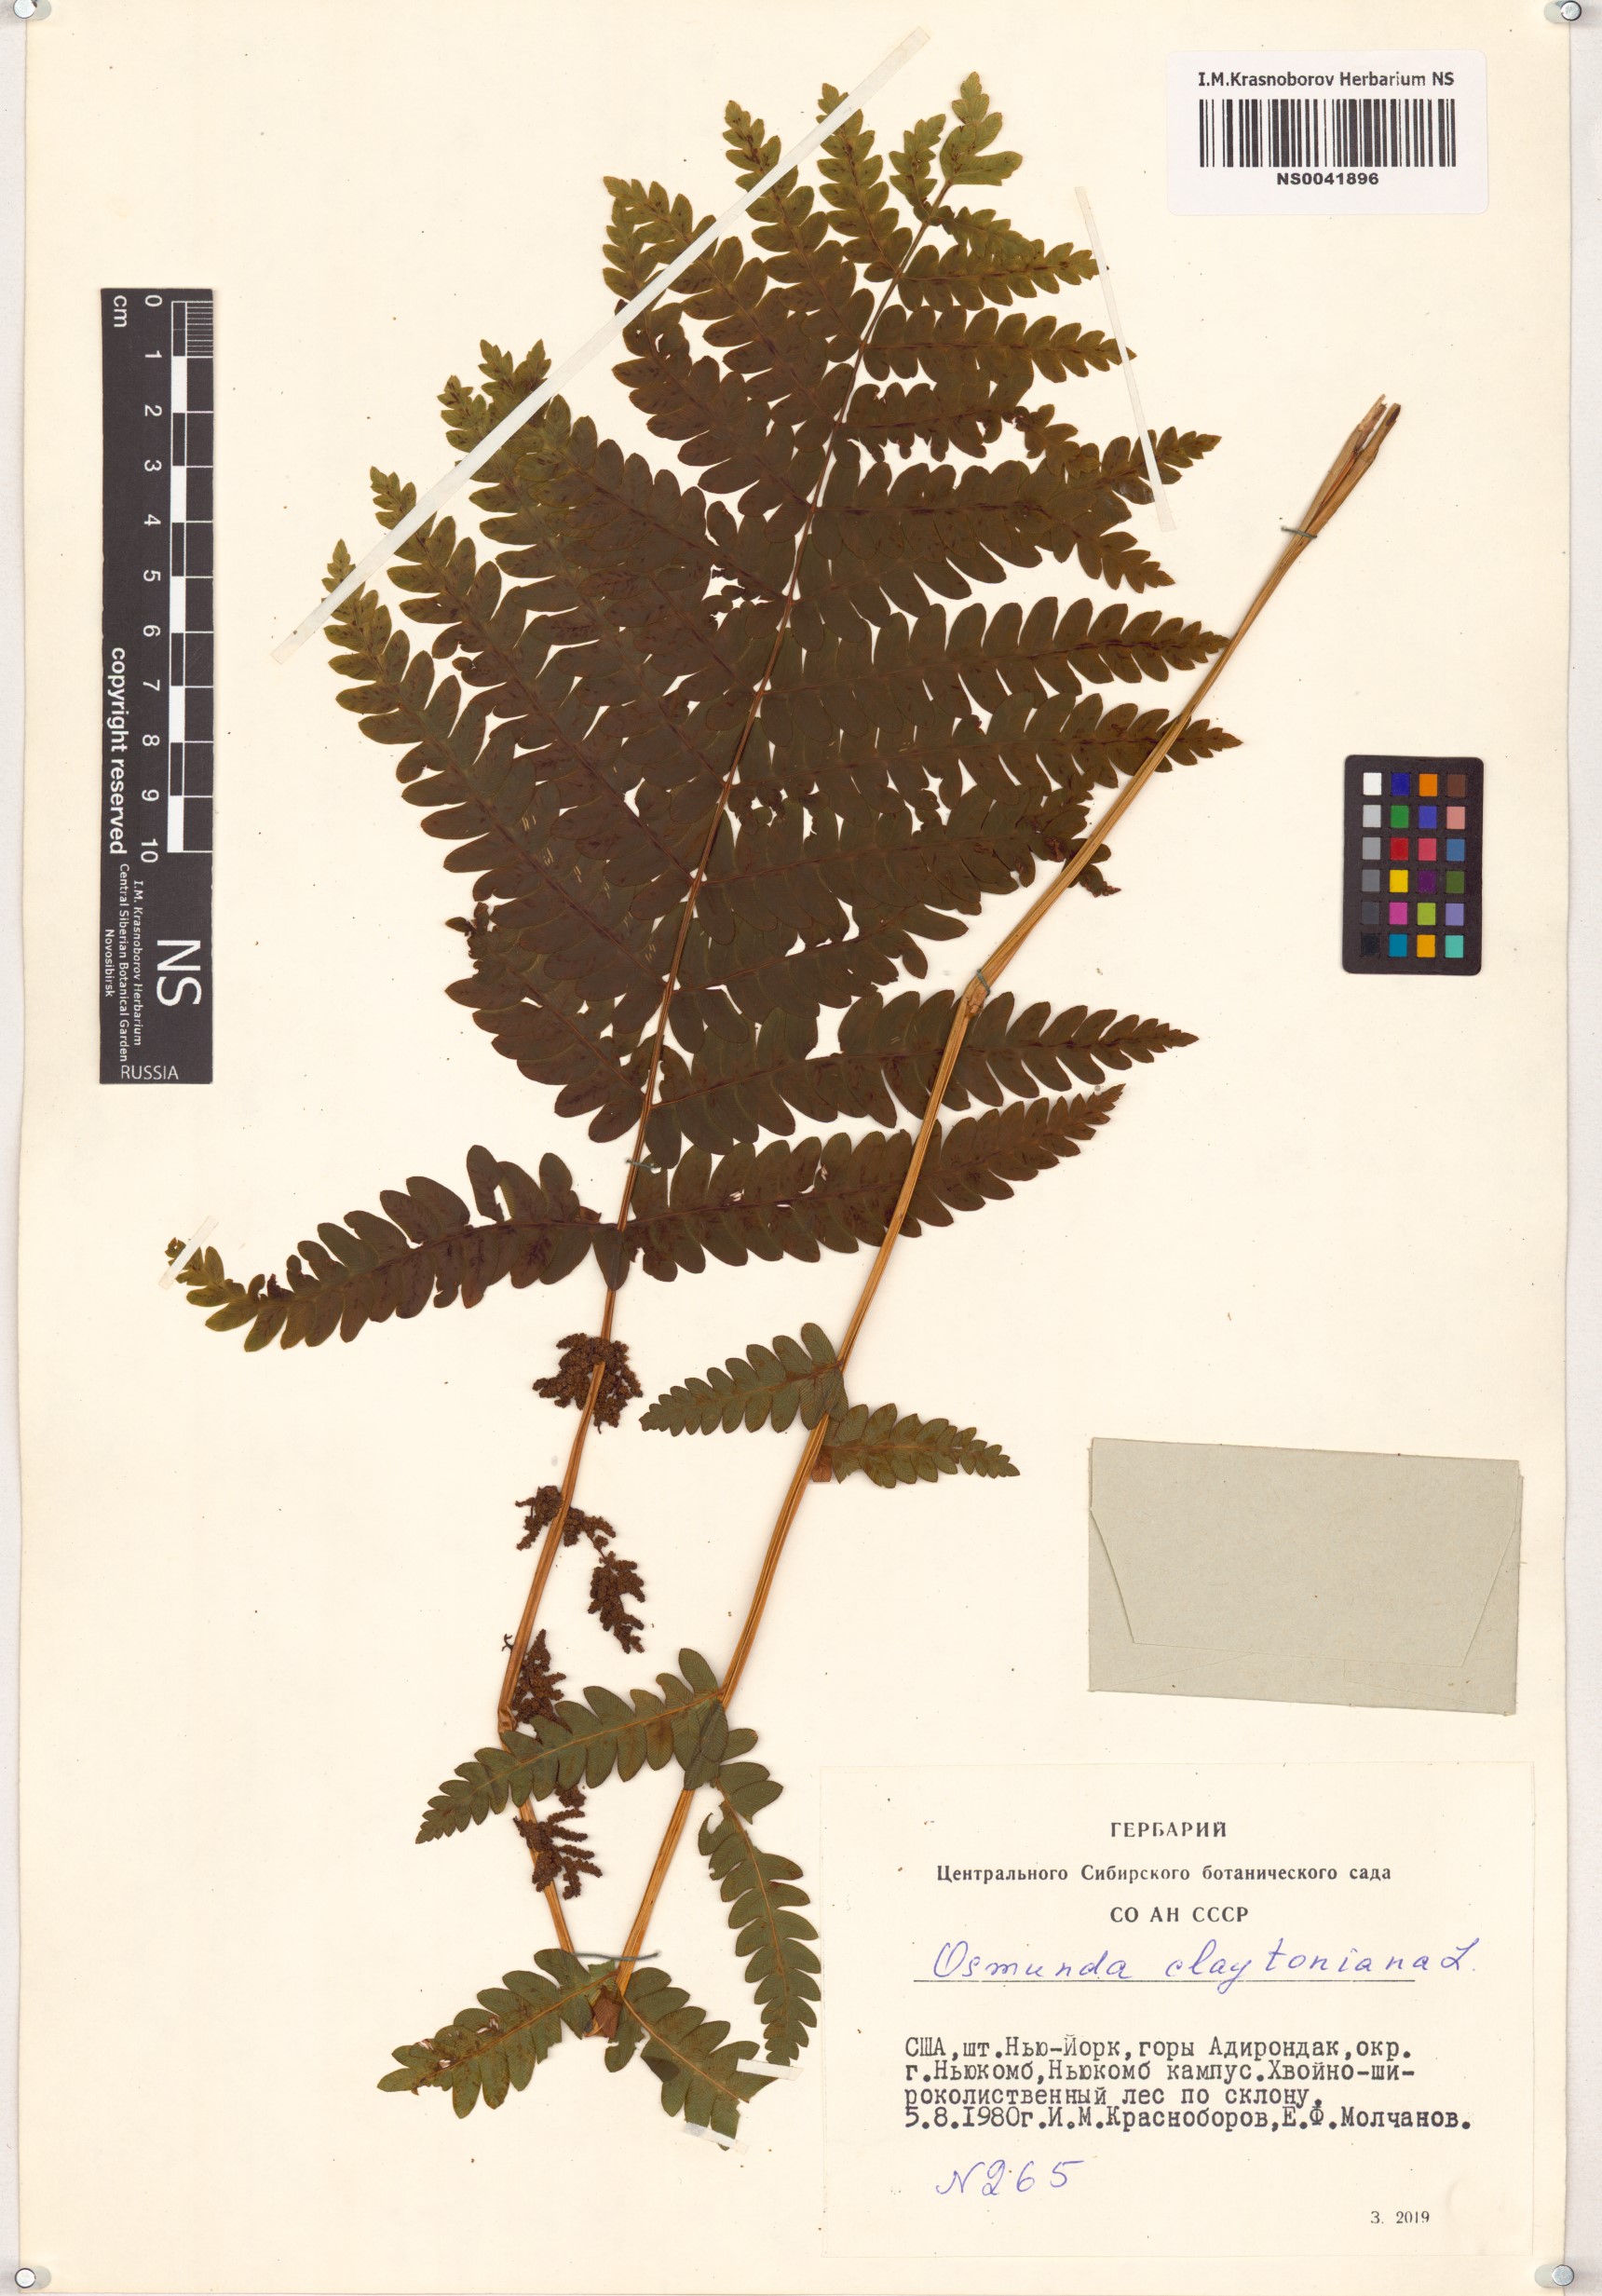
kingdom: Plantae
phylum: Tracheophyta
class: Polypodiopsida
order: Osmundales
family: Osmundaceae
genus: Claytosmunda
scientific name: Claytosmunda claytoniana
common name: Clayton's fern
